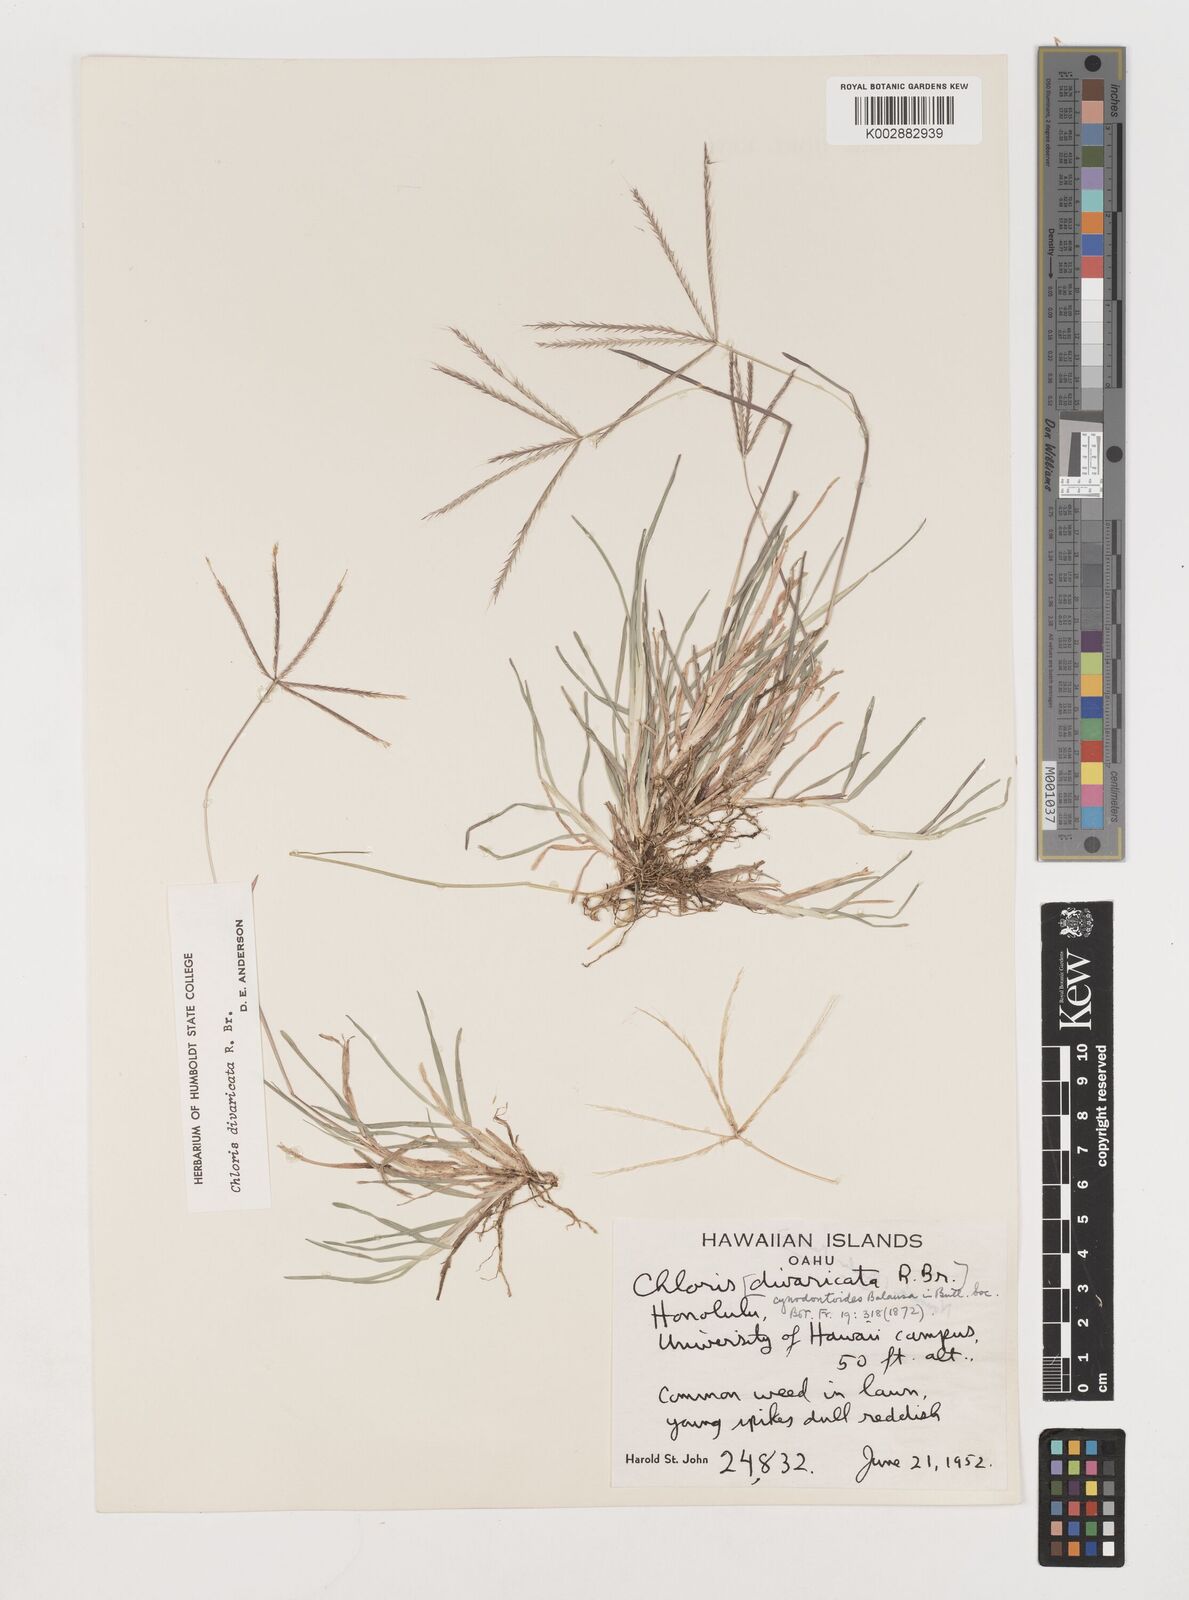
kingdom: Plantae
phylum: Tracheophyta
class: Liliopsida
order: Poales
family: Poaceae
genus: Chloris
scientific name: Chloris divaricata
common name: Spreading windmill grass
